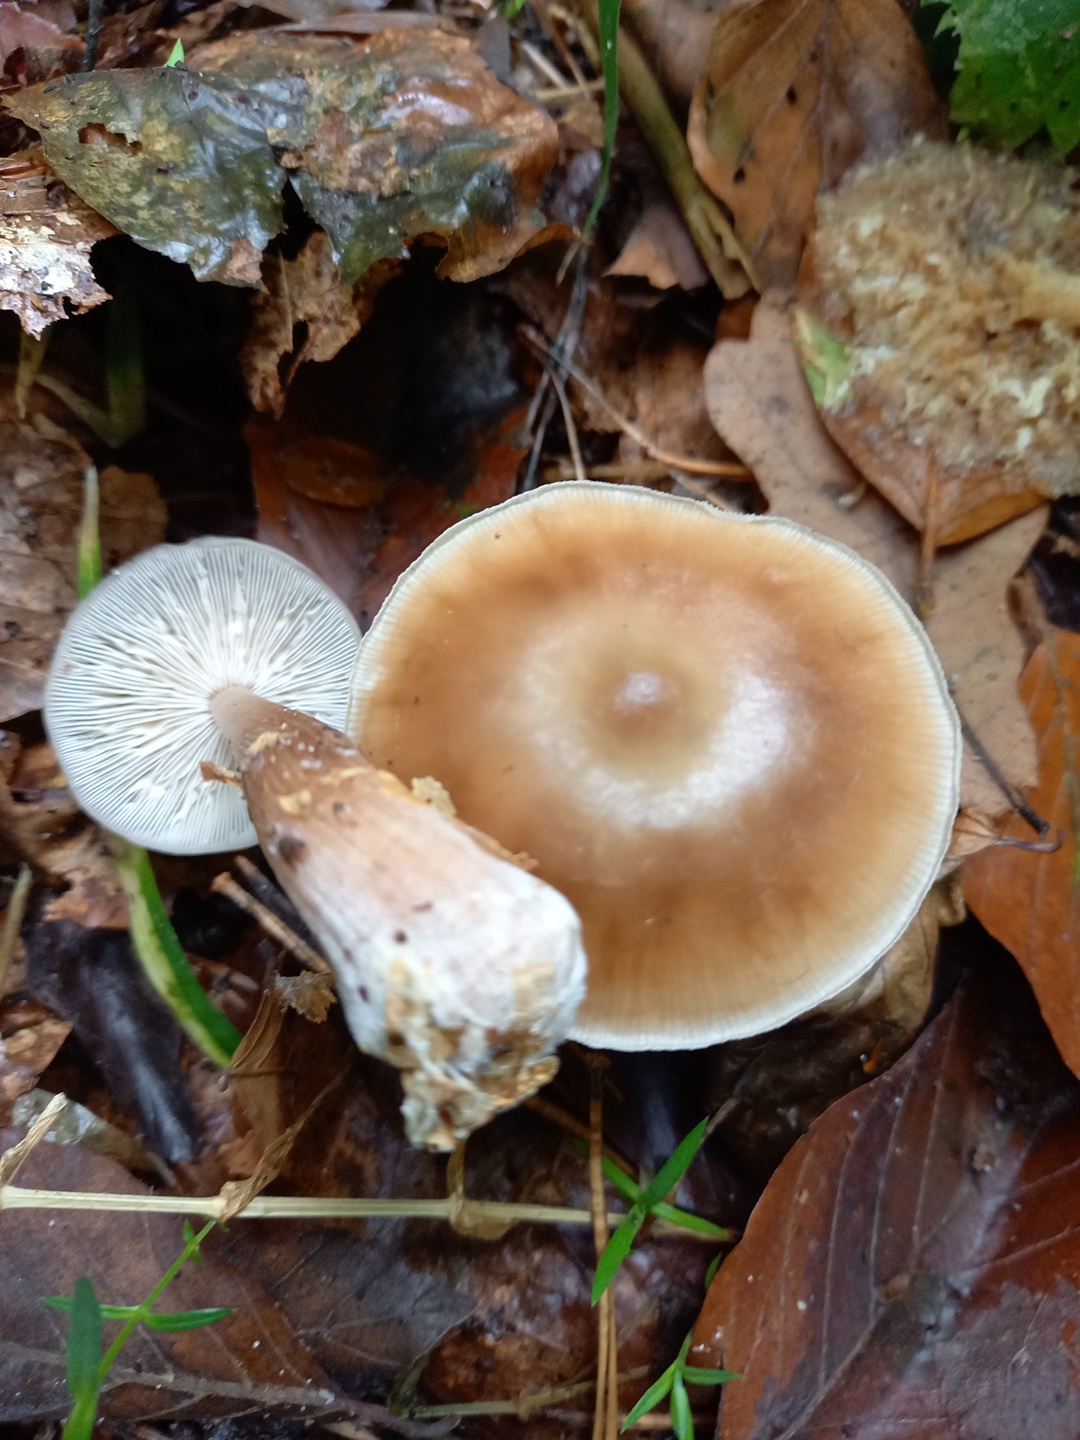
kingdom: Fungi
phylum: Basidiomycota
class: Agaricomycetes
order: Agaricales
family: Omphalotaceae
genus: Rhodocollybia
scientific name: Rhodocollybia asema
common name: horngrå fladhat
